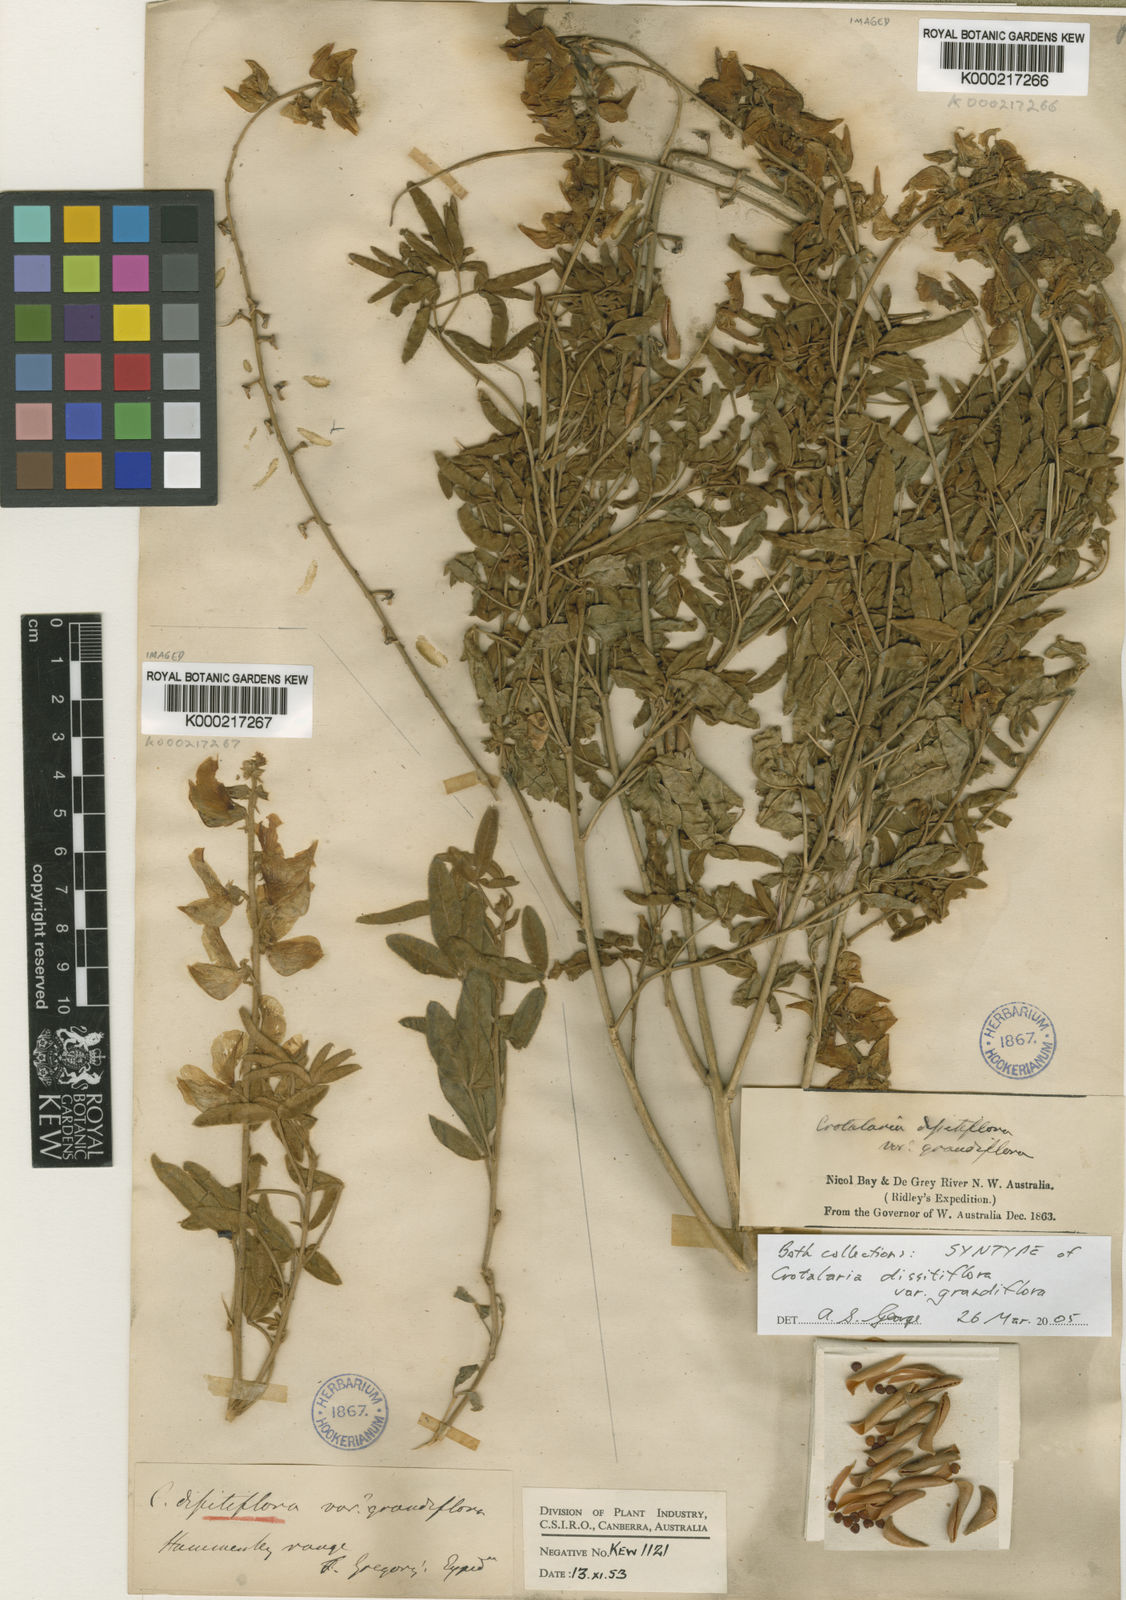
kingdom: Plantae
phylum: Tracheophyta
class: Magnoliopsida
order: Fabales
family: Fabaceae
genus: Crotalaria
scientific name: Crotalaria dissitiflora
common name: Grey rattlepod
